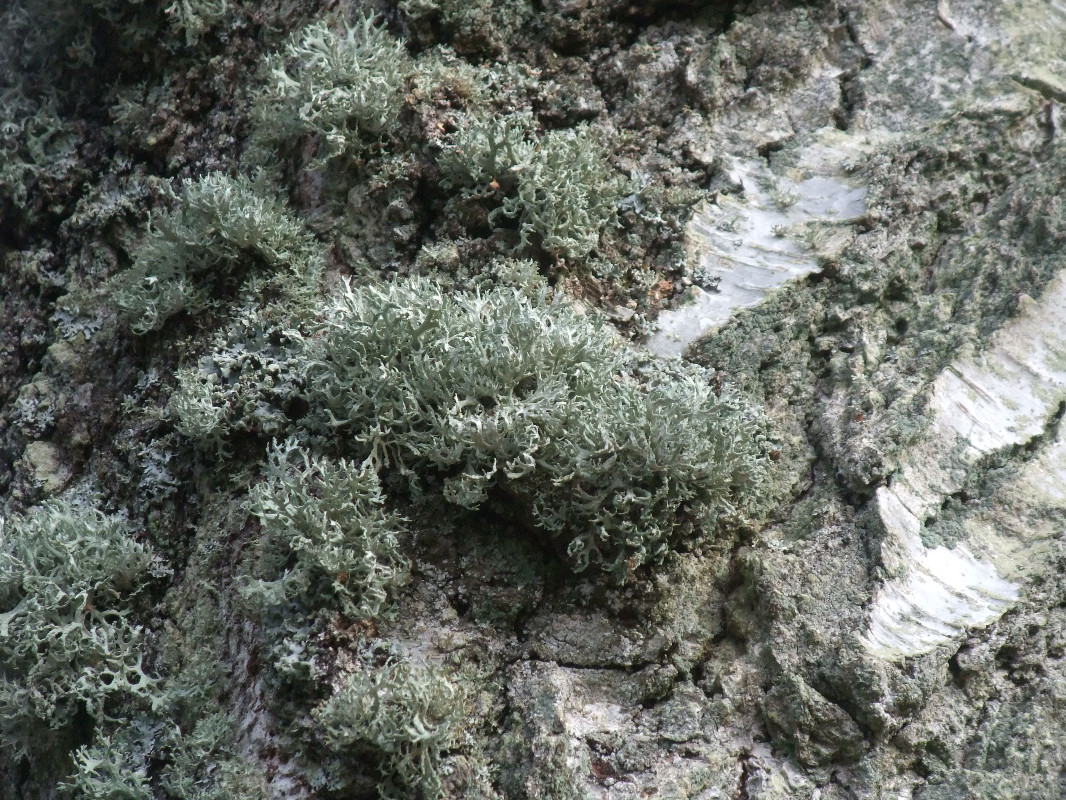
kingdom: Fungi
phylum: Ascomycota
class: Lecanoromycetes
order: Lecanorales
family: Parmeliaceae
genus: Evernia
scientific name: Evernia prunastri
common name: almindelig slåenlav
